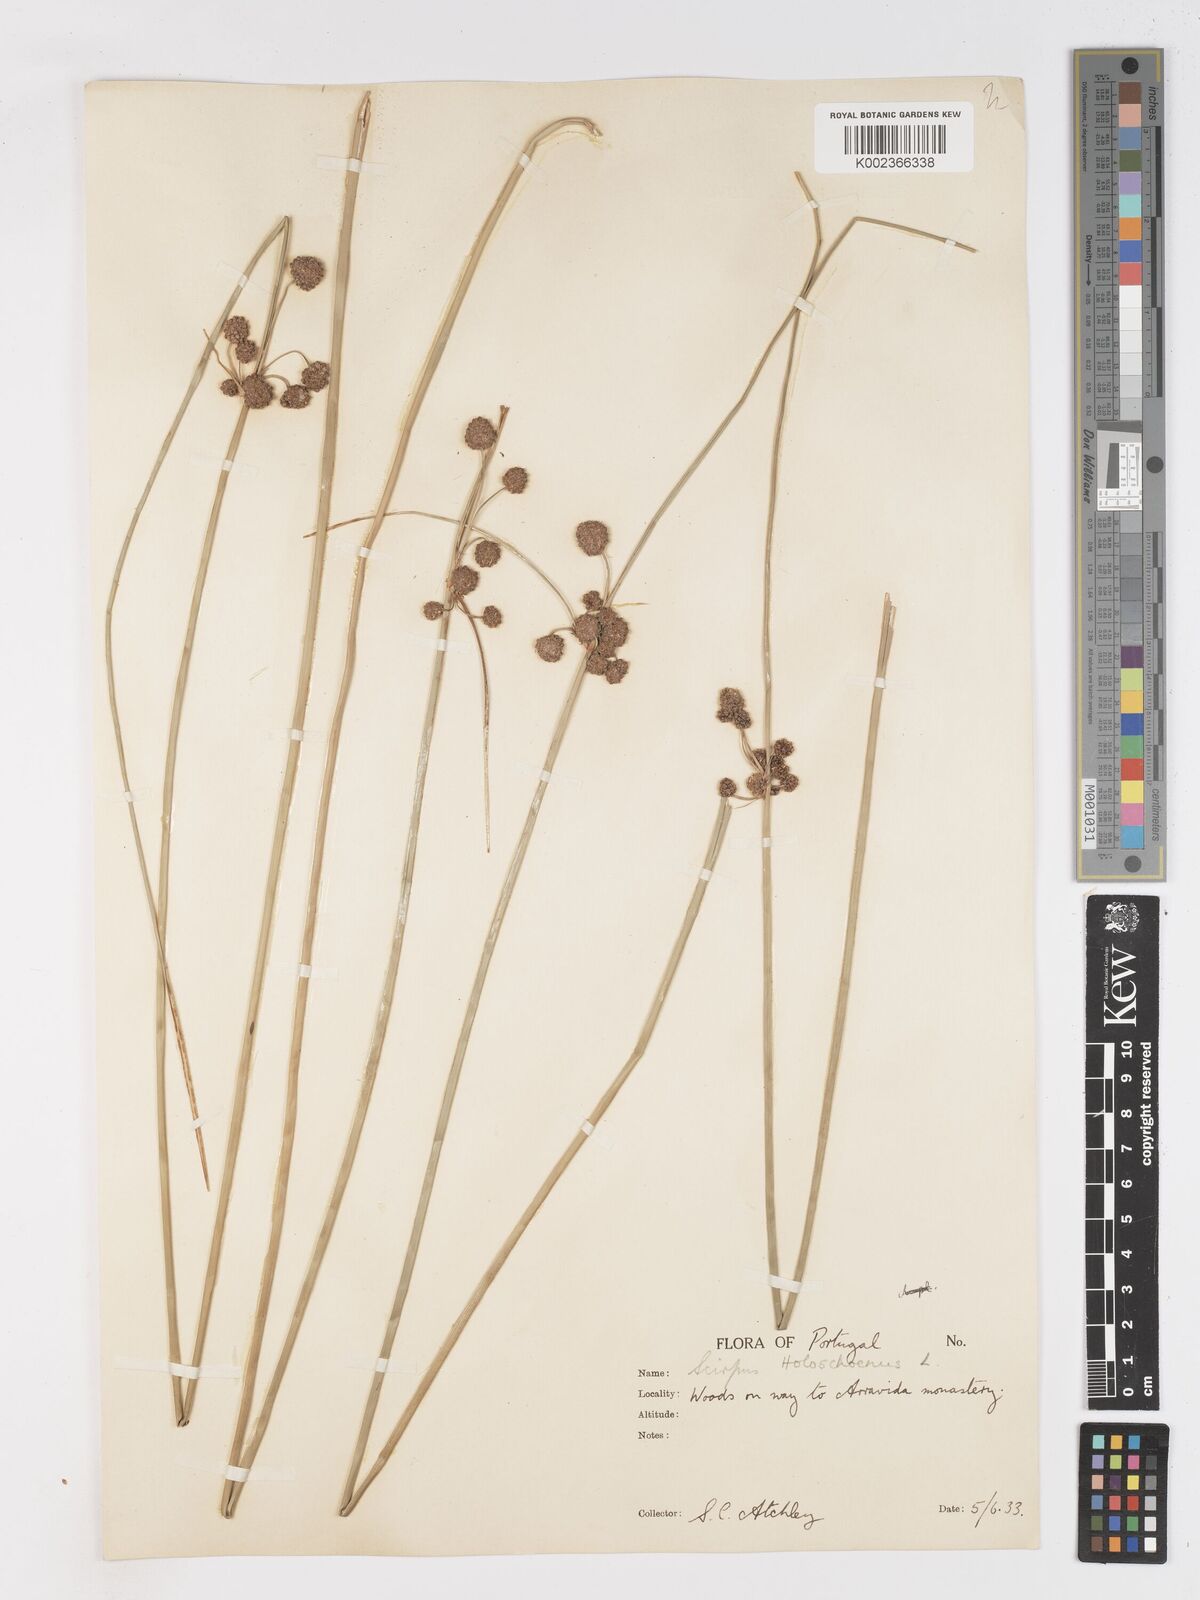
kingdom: Plantae
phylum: Tracheophyta
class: Liliopsida
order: Poales
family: Cyperaceae
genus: Scirpoides
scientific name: Scirpoides holoschoenus
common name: Round-headed club-rush
